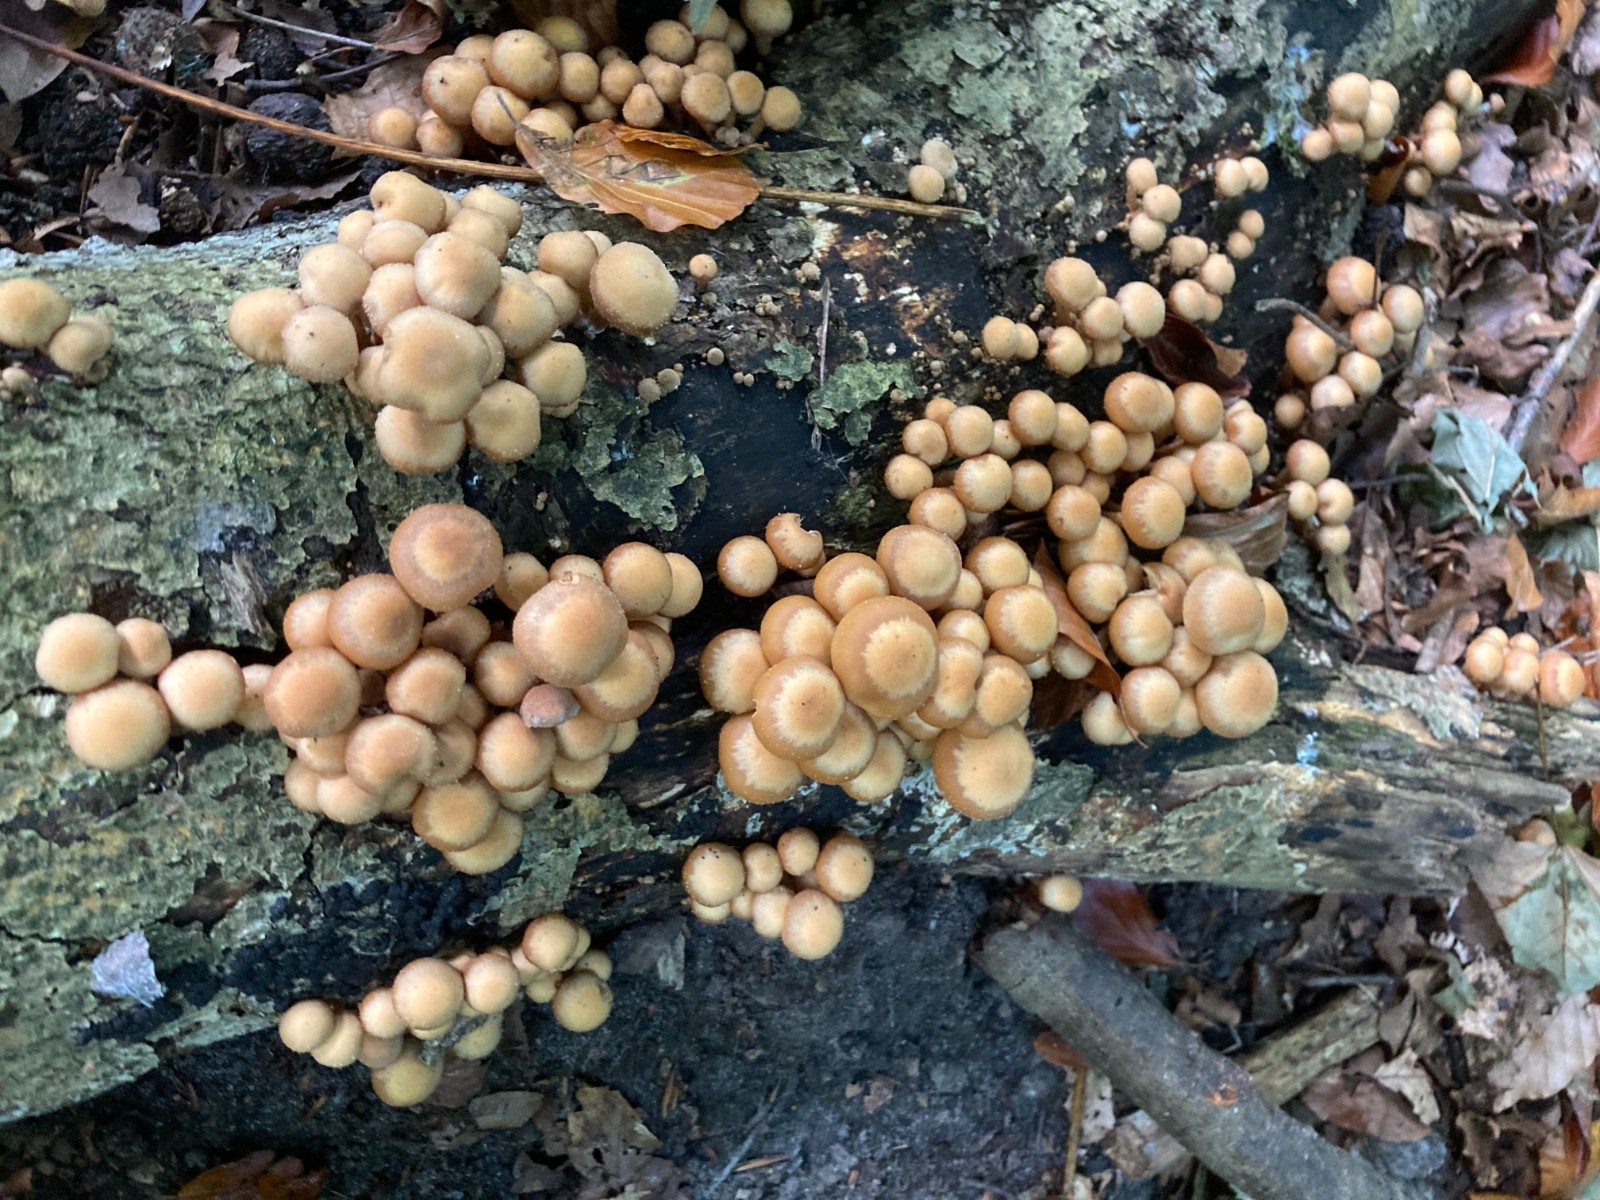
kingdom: Fungi
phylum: Basidiomycota
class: Agaricomycetes
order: Agaricales
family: Strophariaceae
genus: Kuehneromyces
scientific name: Kuehneromyces mutabilis
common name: foranderlig skælhat
